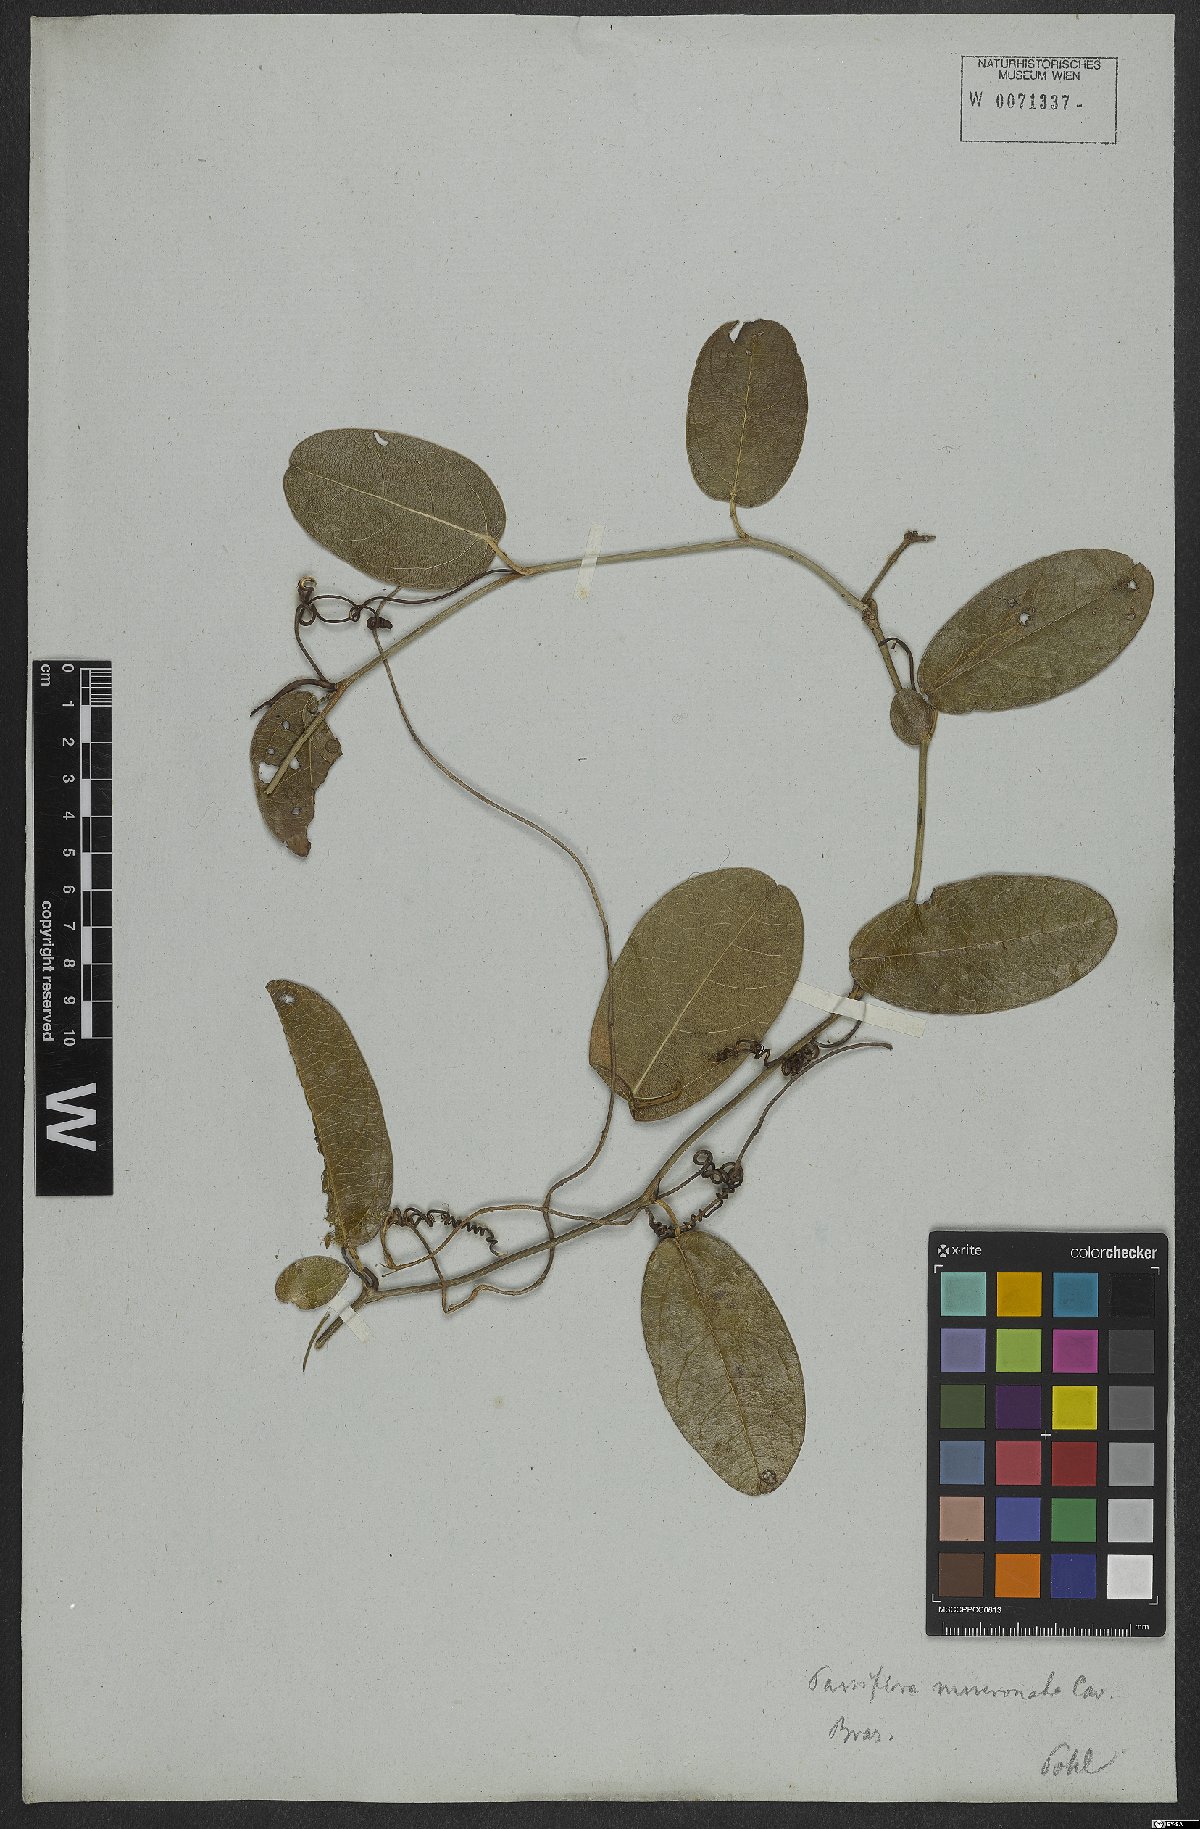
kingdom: Plantae
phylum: Tracheophyta
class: Magnoliopsida
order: Malpighiales
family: Passifloraceae
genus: Passiflora
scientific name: Passiflora mucronata
